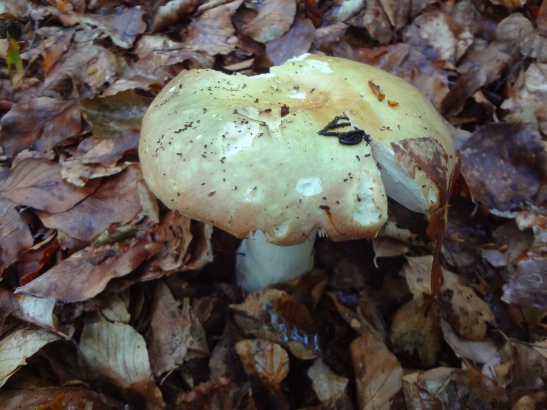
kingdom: Fungi
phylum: Basidiomycota
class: Agaricomycetes
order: Russulales
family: Russulaceae
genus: Russula
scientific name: Russula faginea
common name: bøge-skørhat
